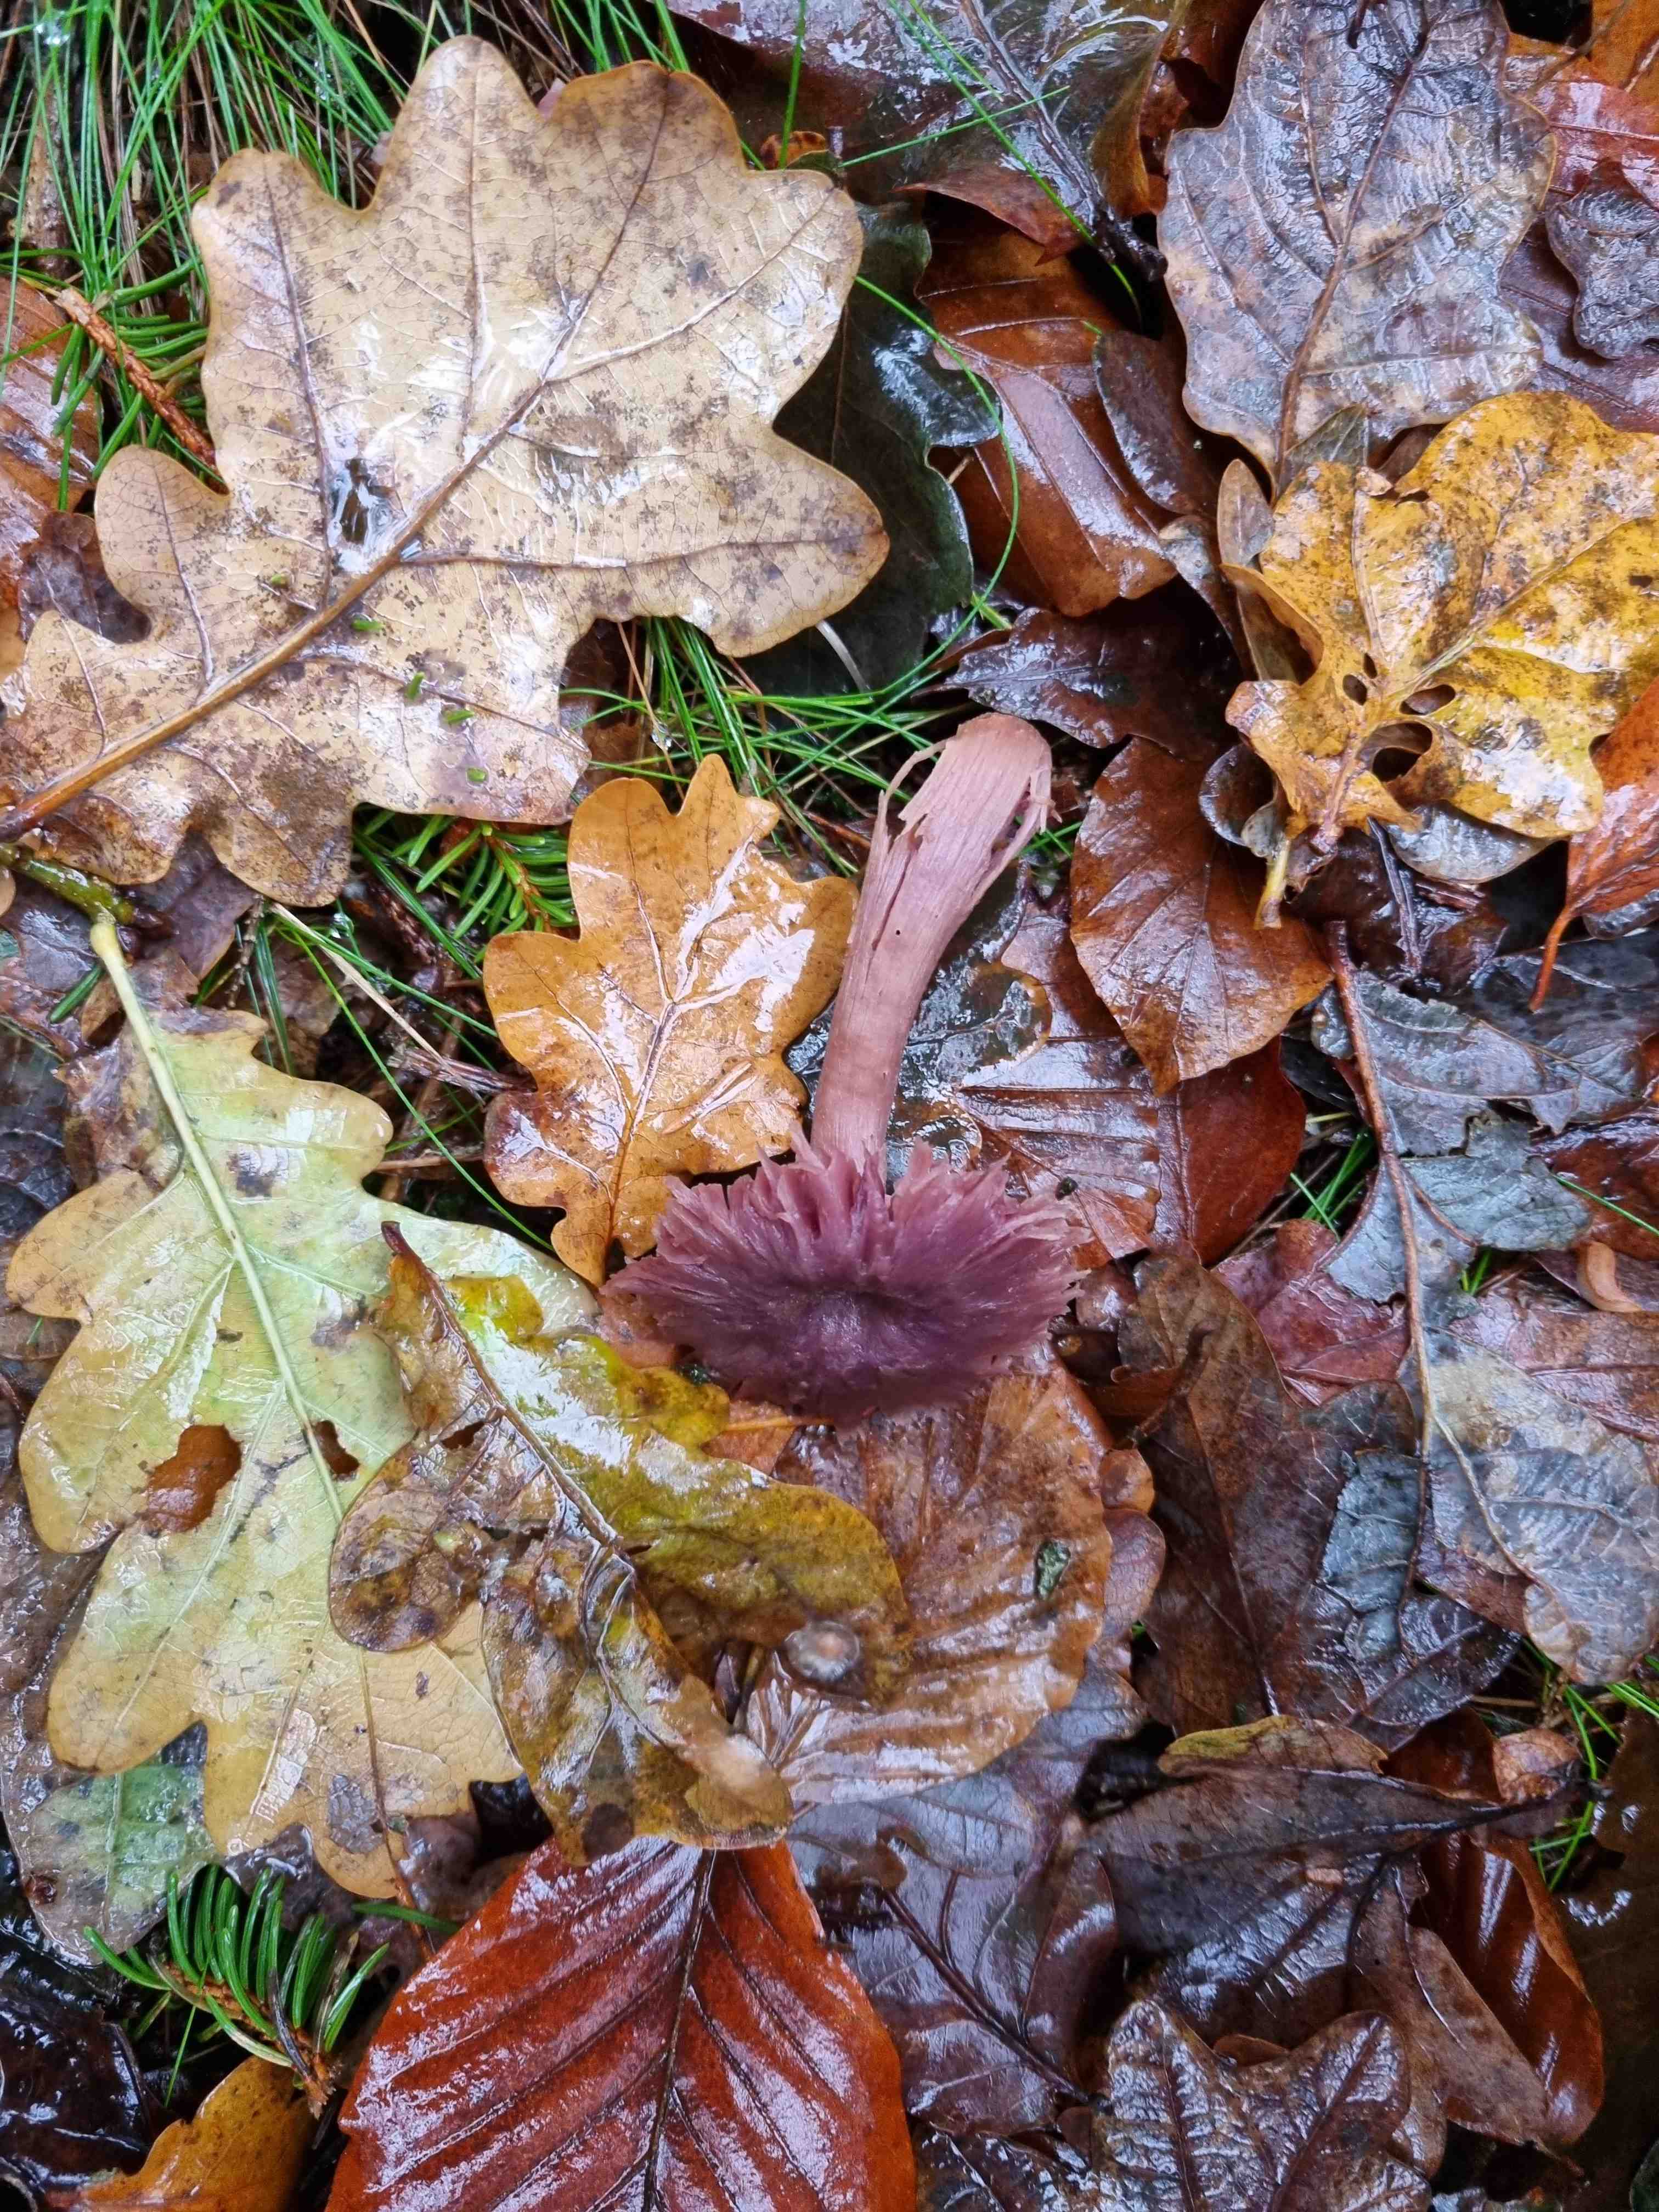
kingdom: Fungi
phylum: Basidiomycota
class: Agaricomycetes
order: Agaricales
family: Hydnangiaceae
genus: Laccaria
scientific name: Laccaria amethystina
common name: violet ametysthat
